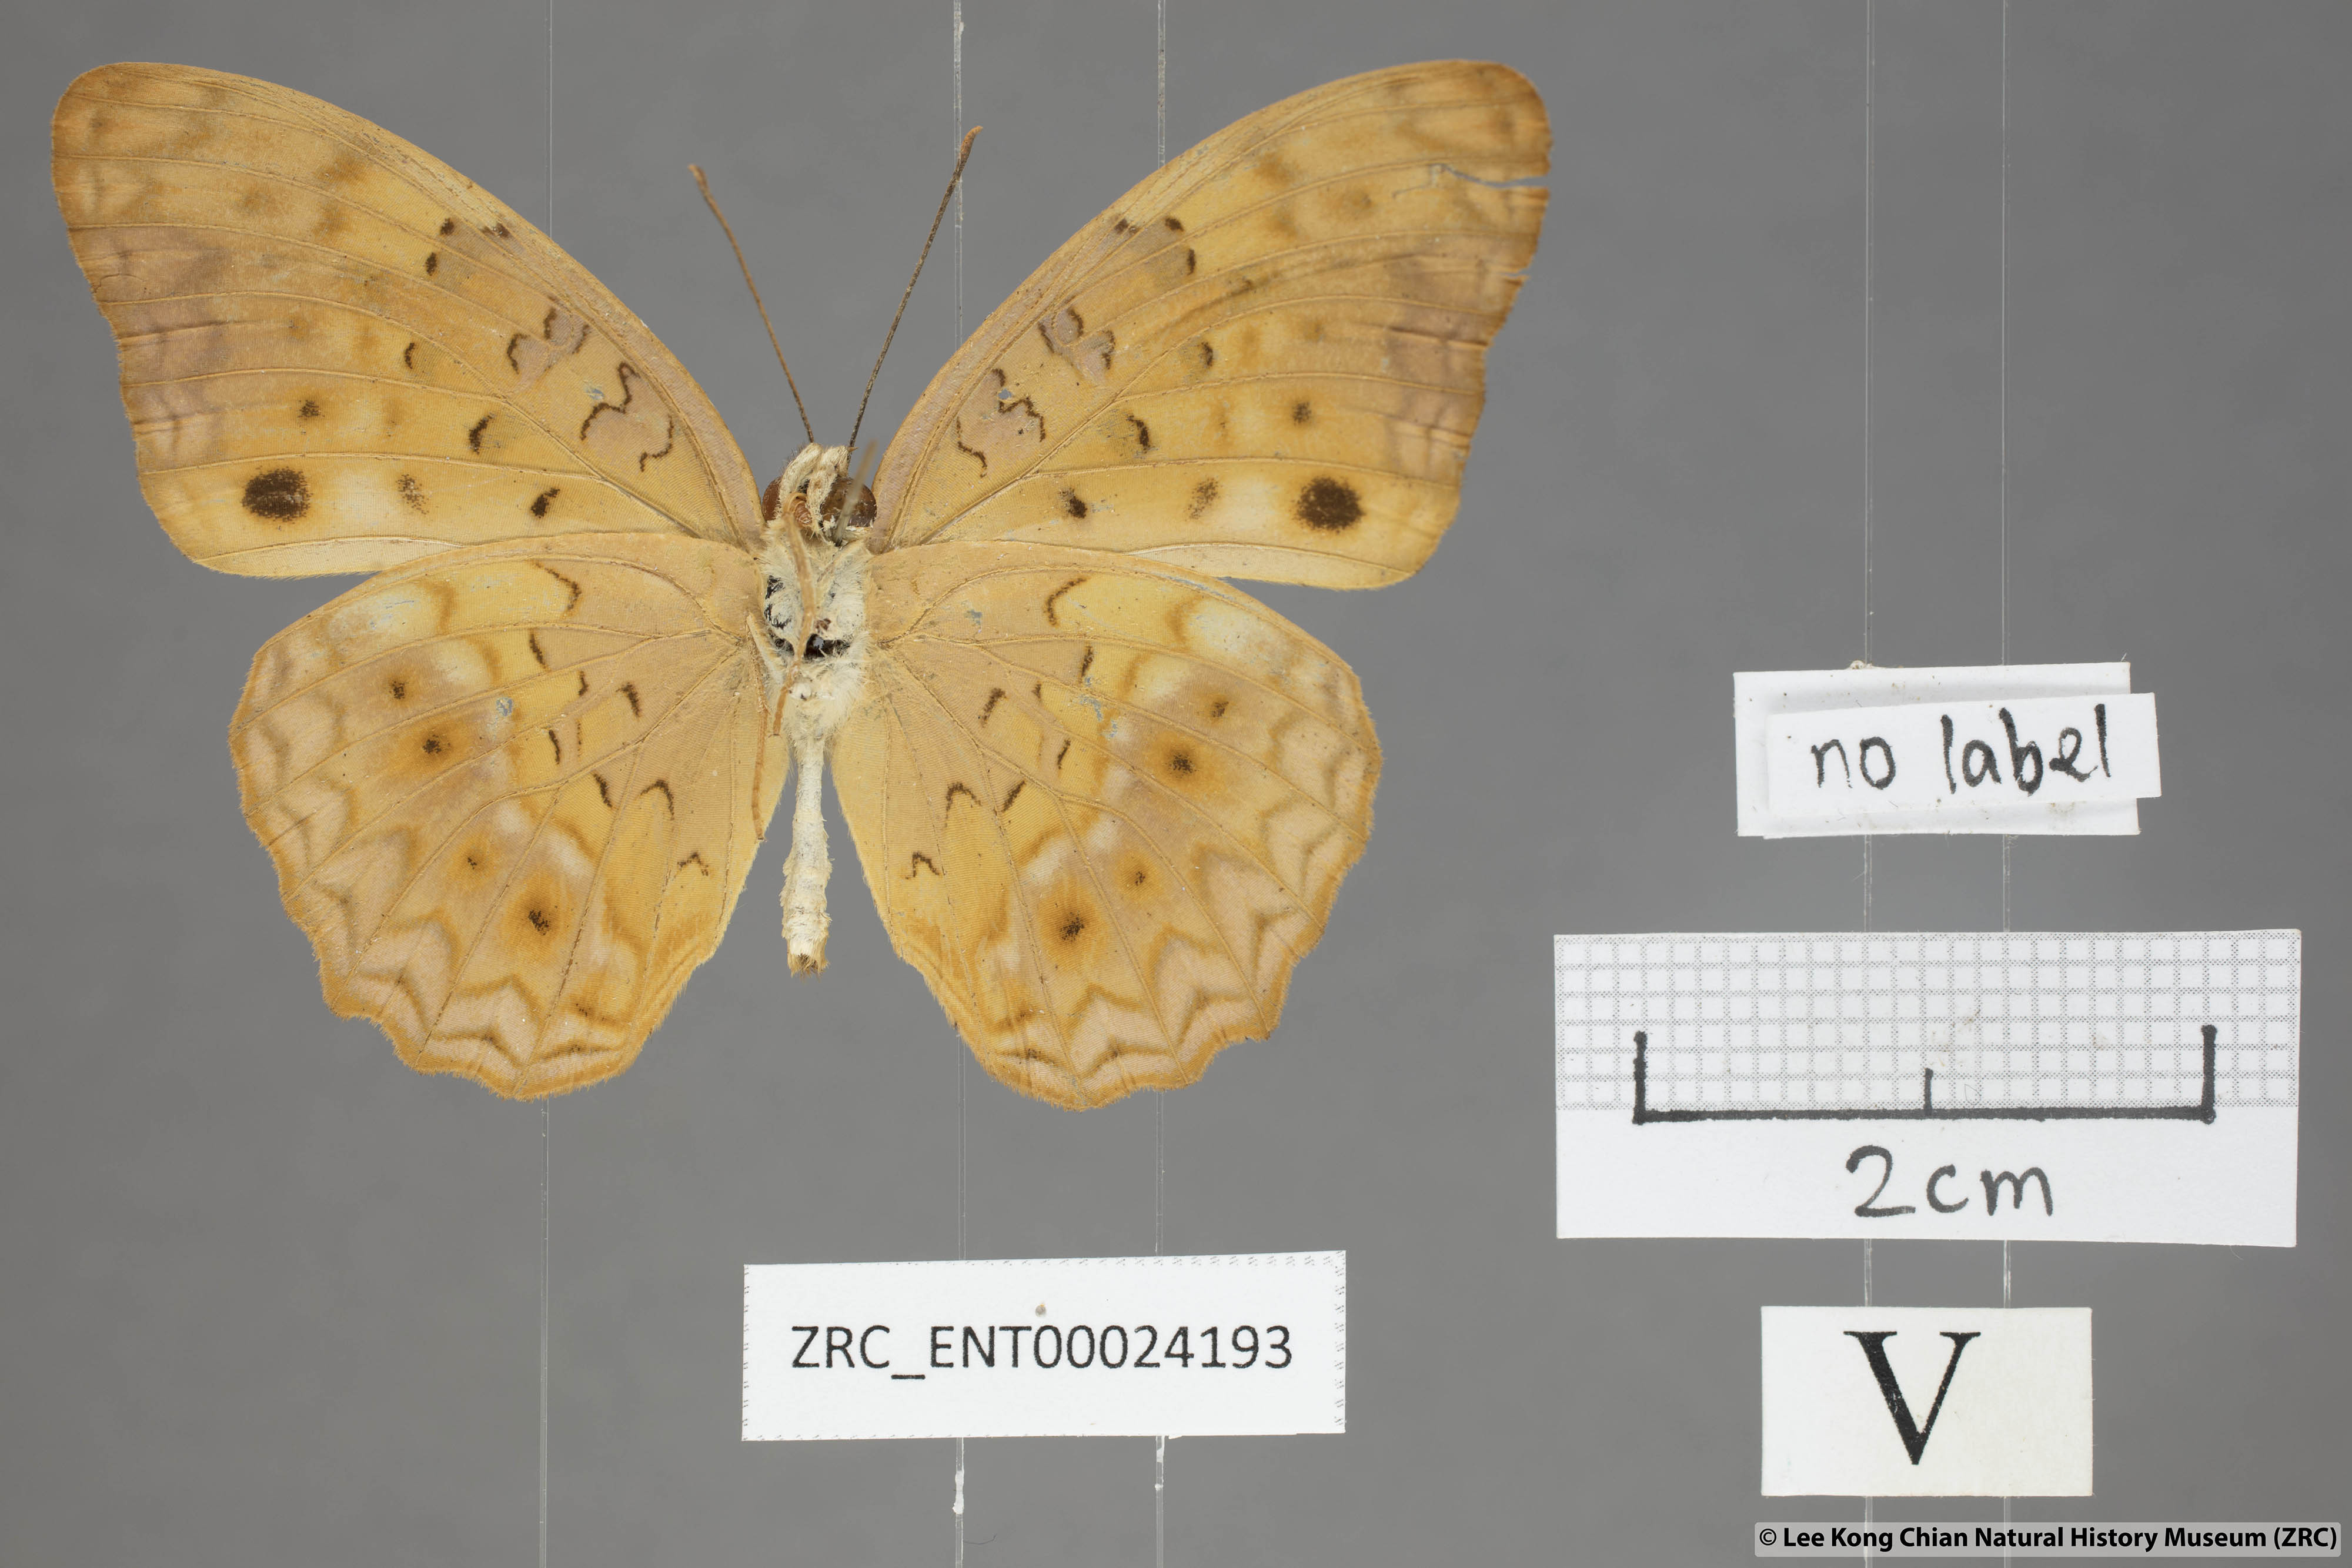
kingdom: Animalia
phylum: Arthropoda
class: Insecta
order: Lepidoptera
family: Nymphalidae
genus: Phalanta
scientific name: Phalanta phalantha
